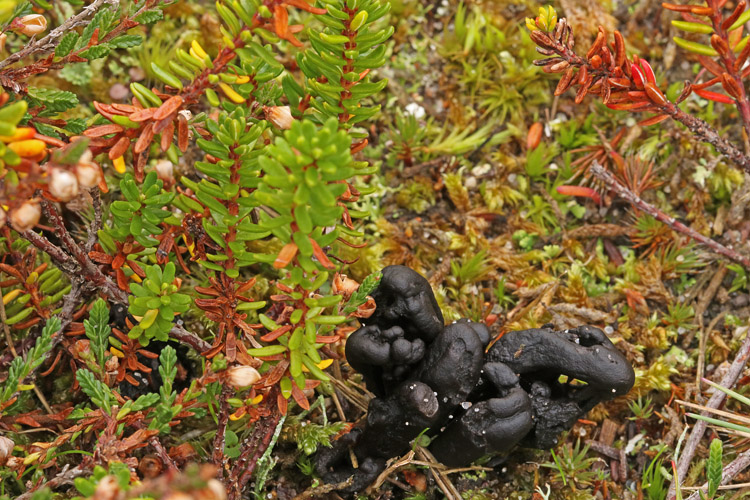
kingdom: Fungi
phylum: Ascomycota
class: Geoglossomycetes
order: Geoglossales
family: Geoglossaceae
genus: Sabuloglossum
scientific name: Sabuloglossum arenarium
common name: klit-jordtunge
